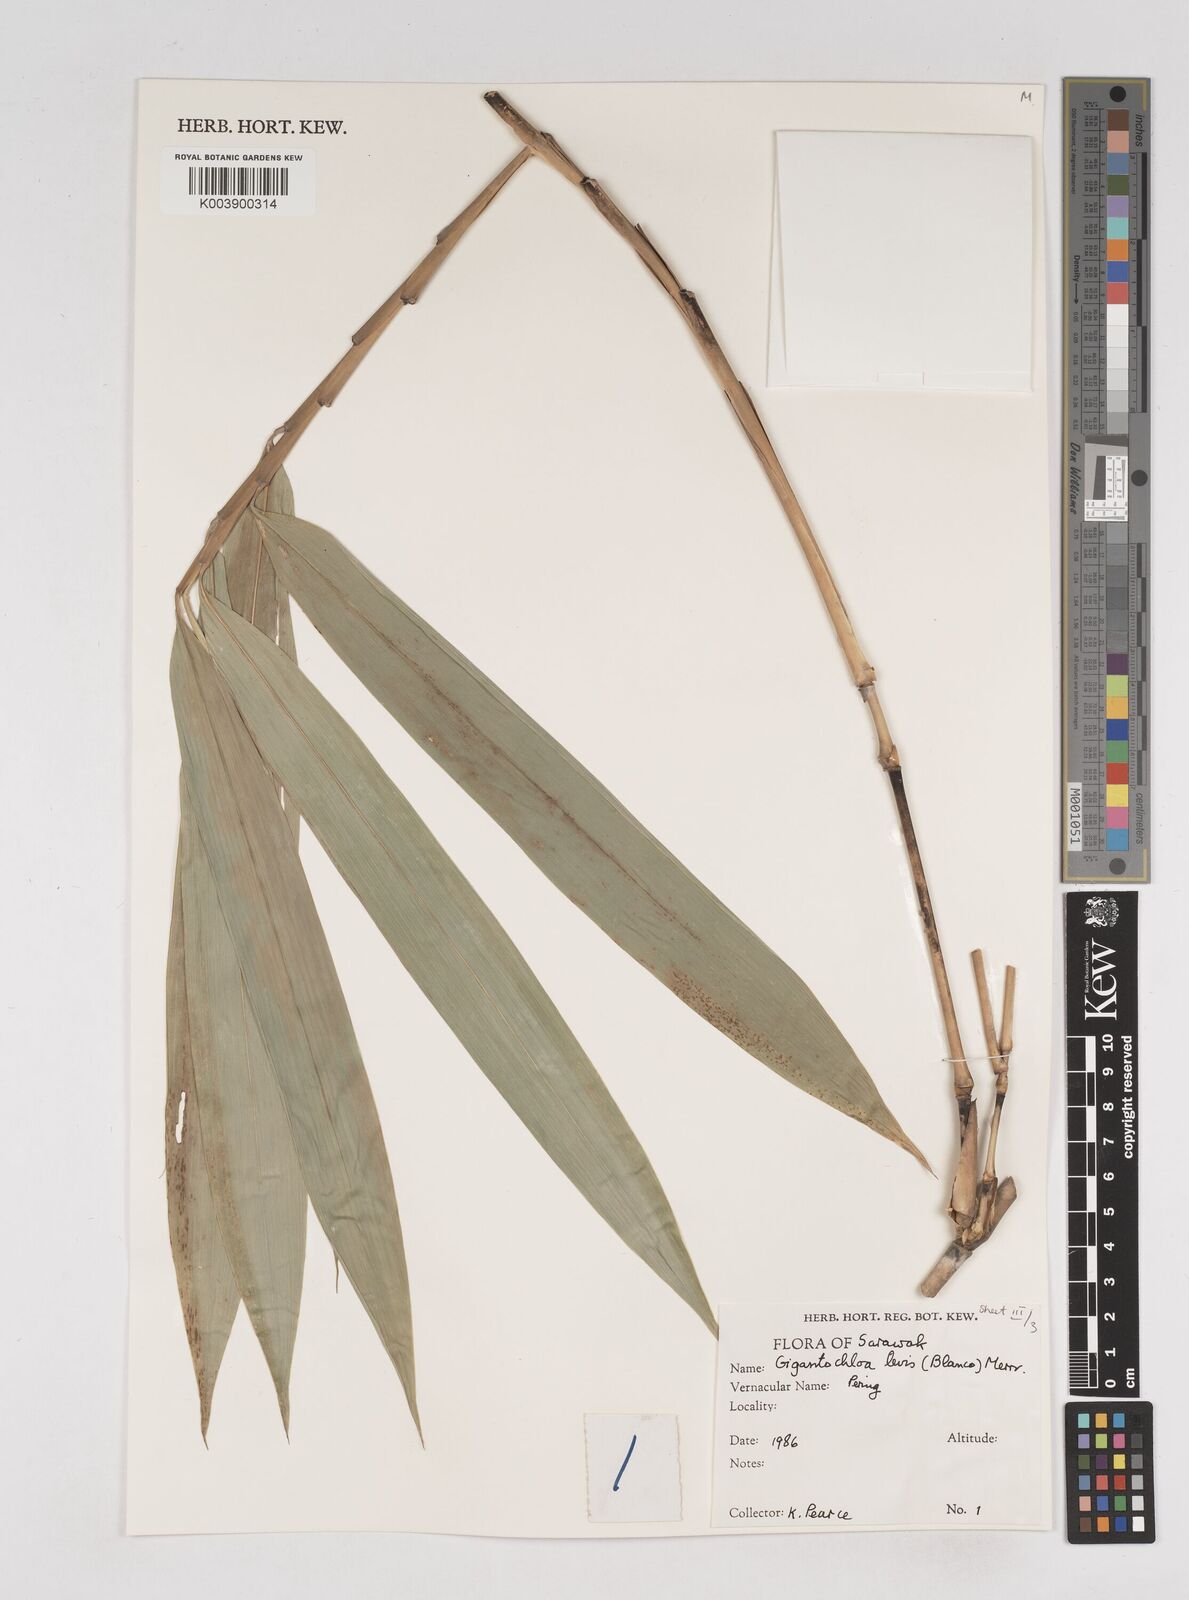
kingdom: Plantae
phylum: Tracheophyta
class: Liliopsida
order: Poales
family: Poaceae
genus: Gigantochloa
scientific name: Gigantochloa levis
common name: Smooth-shoot gigantochloa
